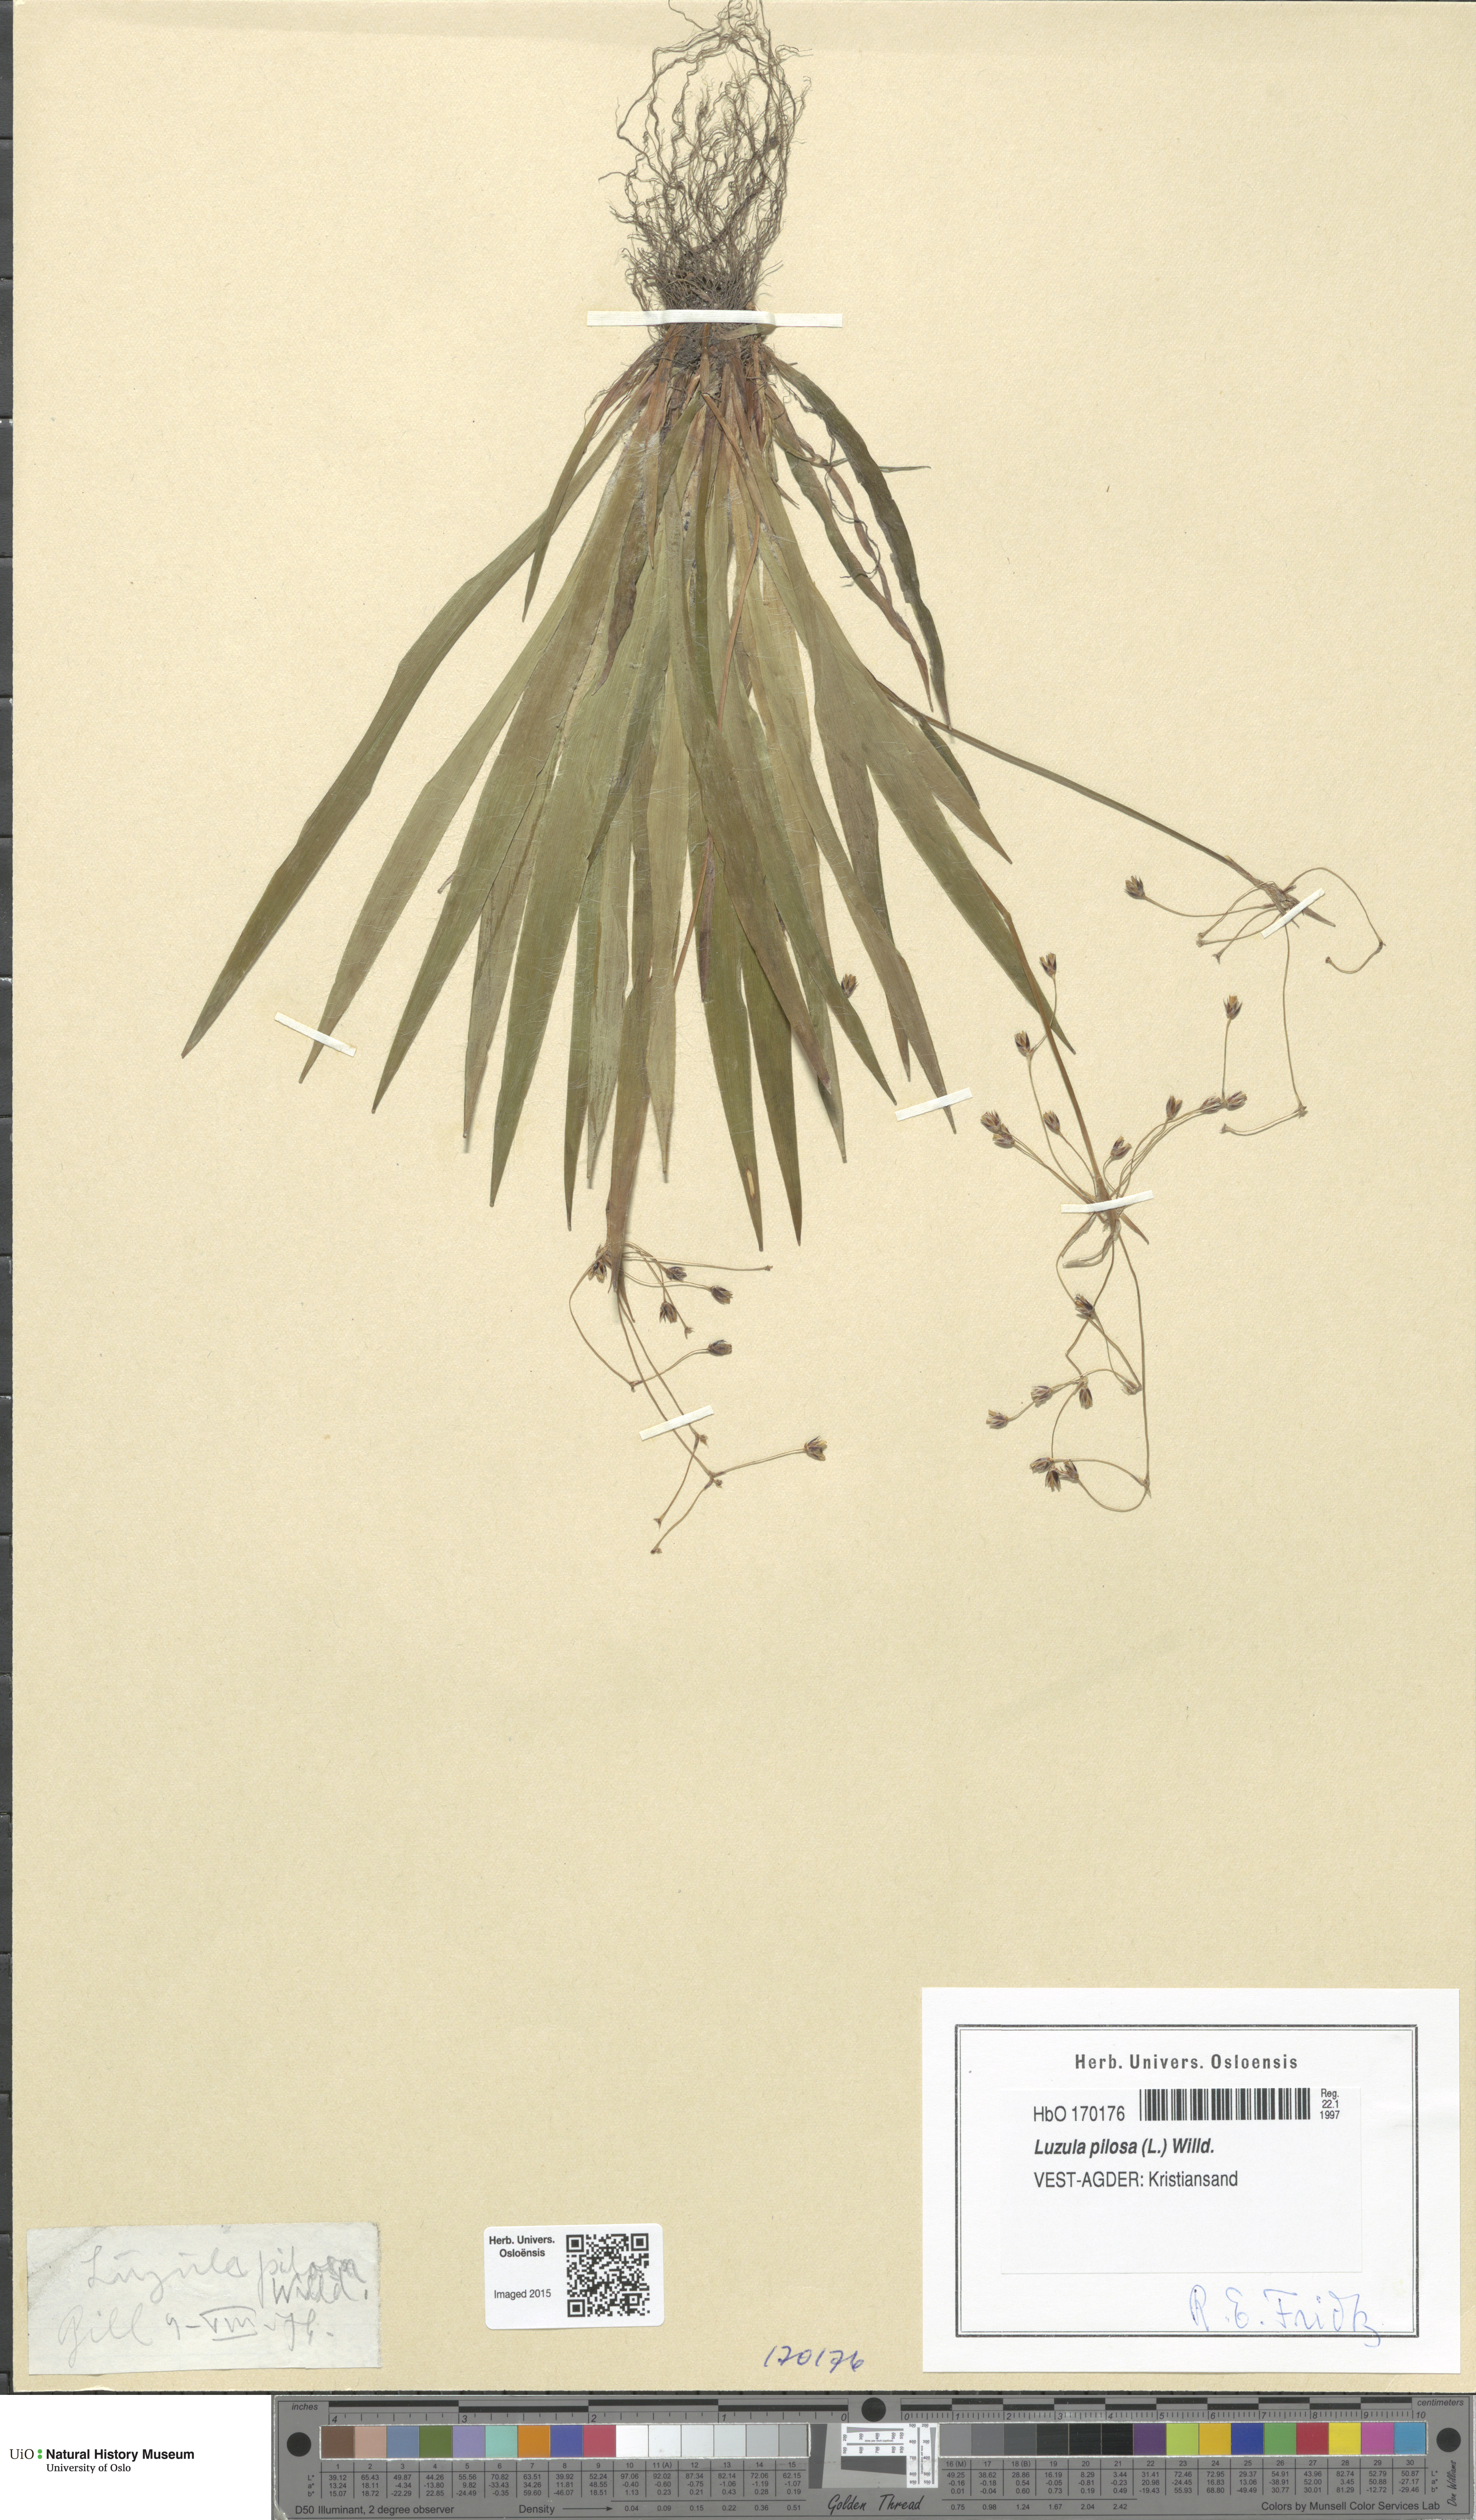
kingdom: Plantae
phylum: Tracheophyta
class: Liliopsida
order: Poales
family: Juncaceae
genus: Luzula
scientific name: Luzula pilosa
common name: Hairy wood-rush
